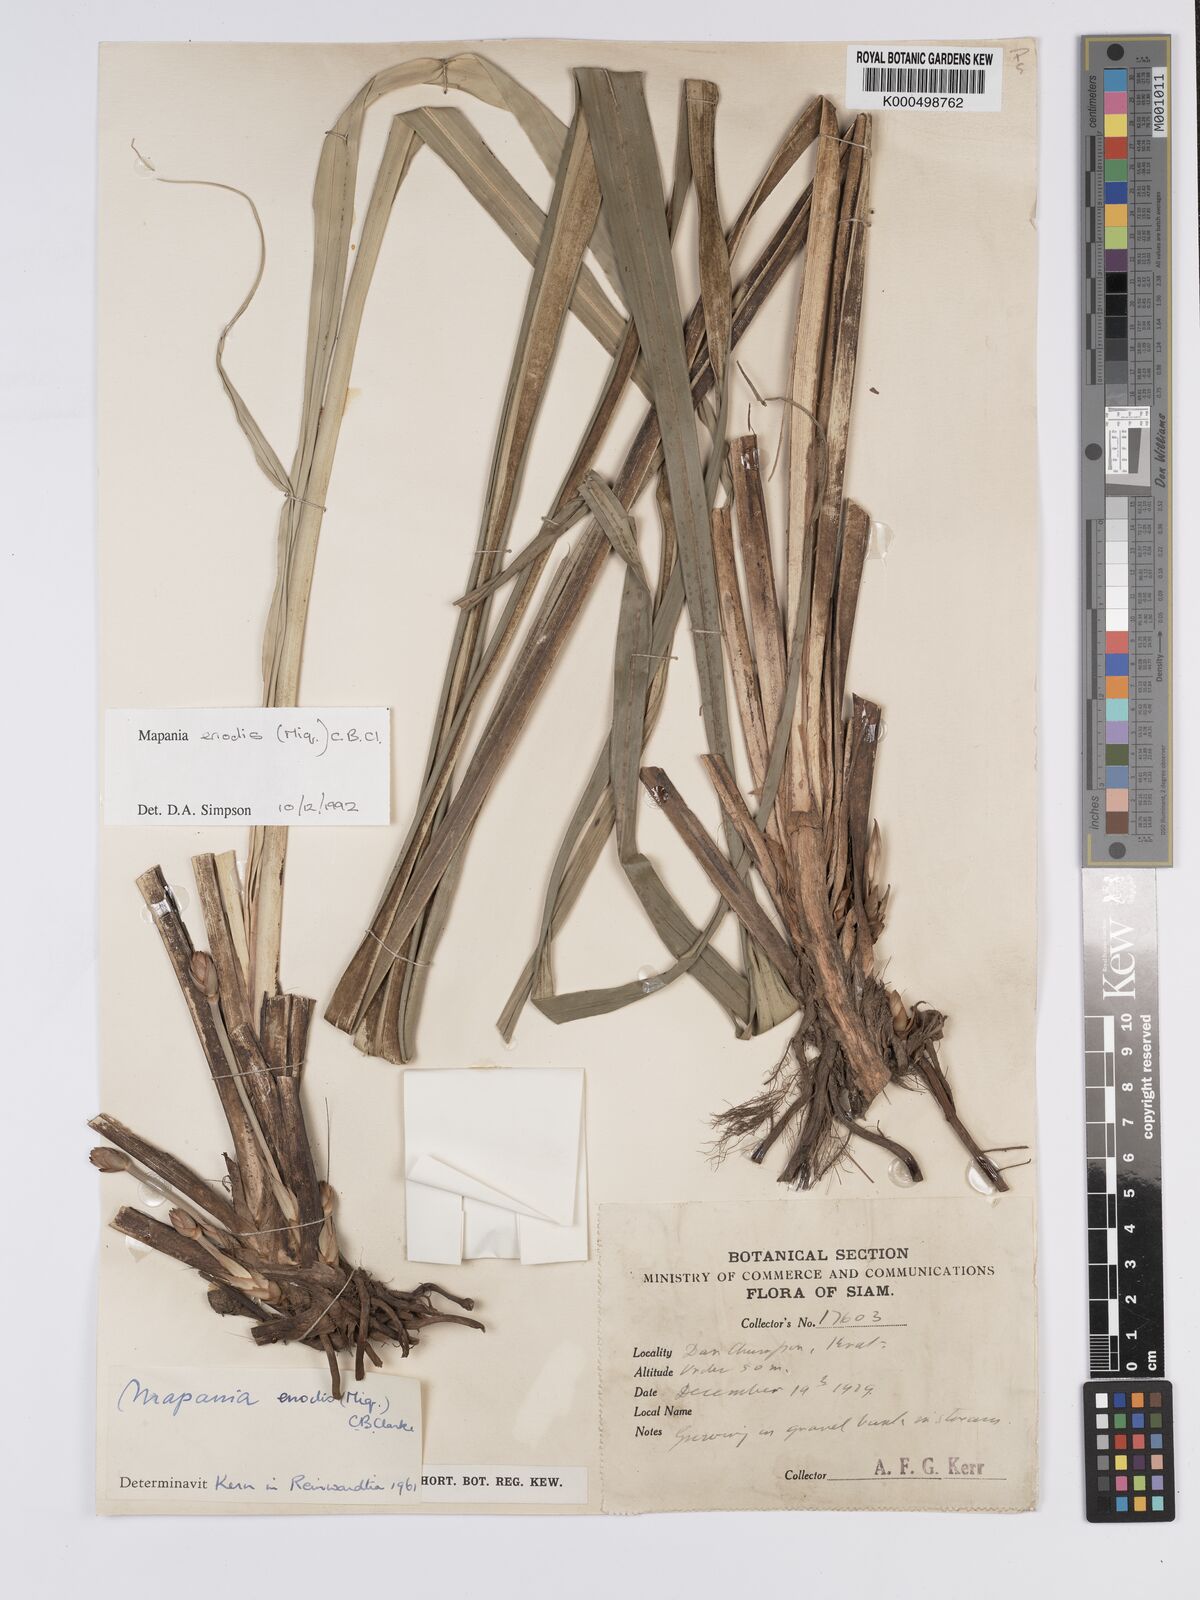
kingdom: Plantae
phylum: Tracheophyta
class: Liliopsida
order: Poales
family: Cyperaceae
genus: Mapania
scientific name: Mapania enodis
